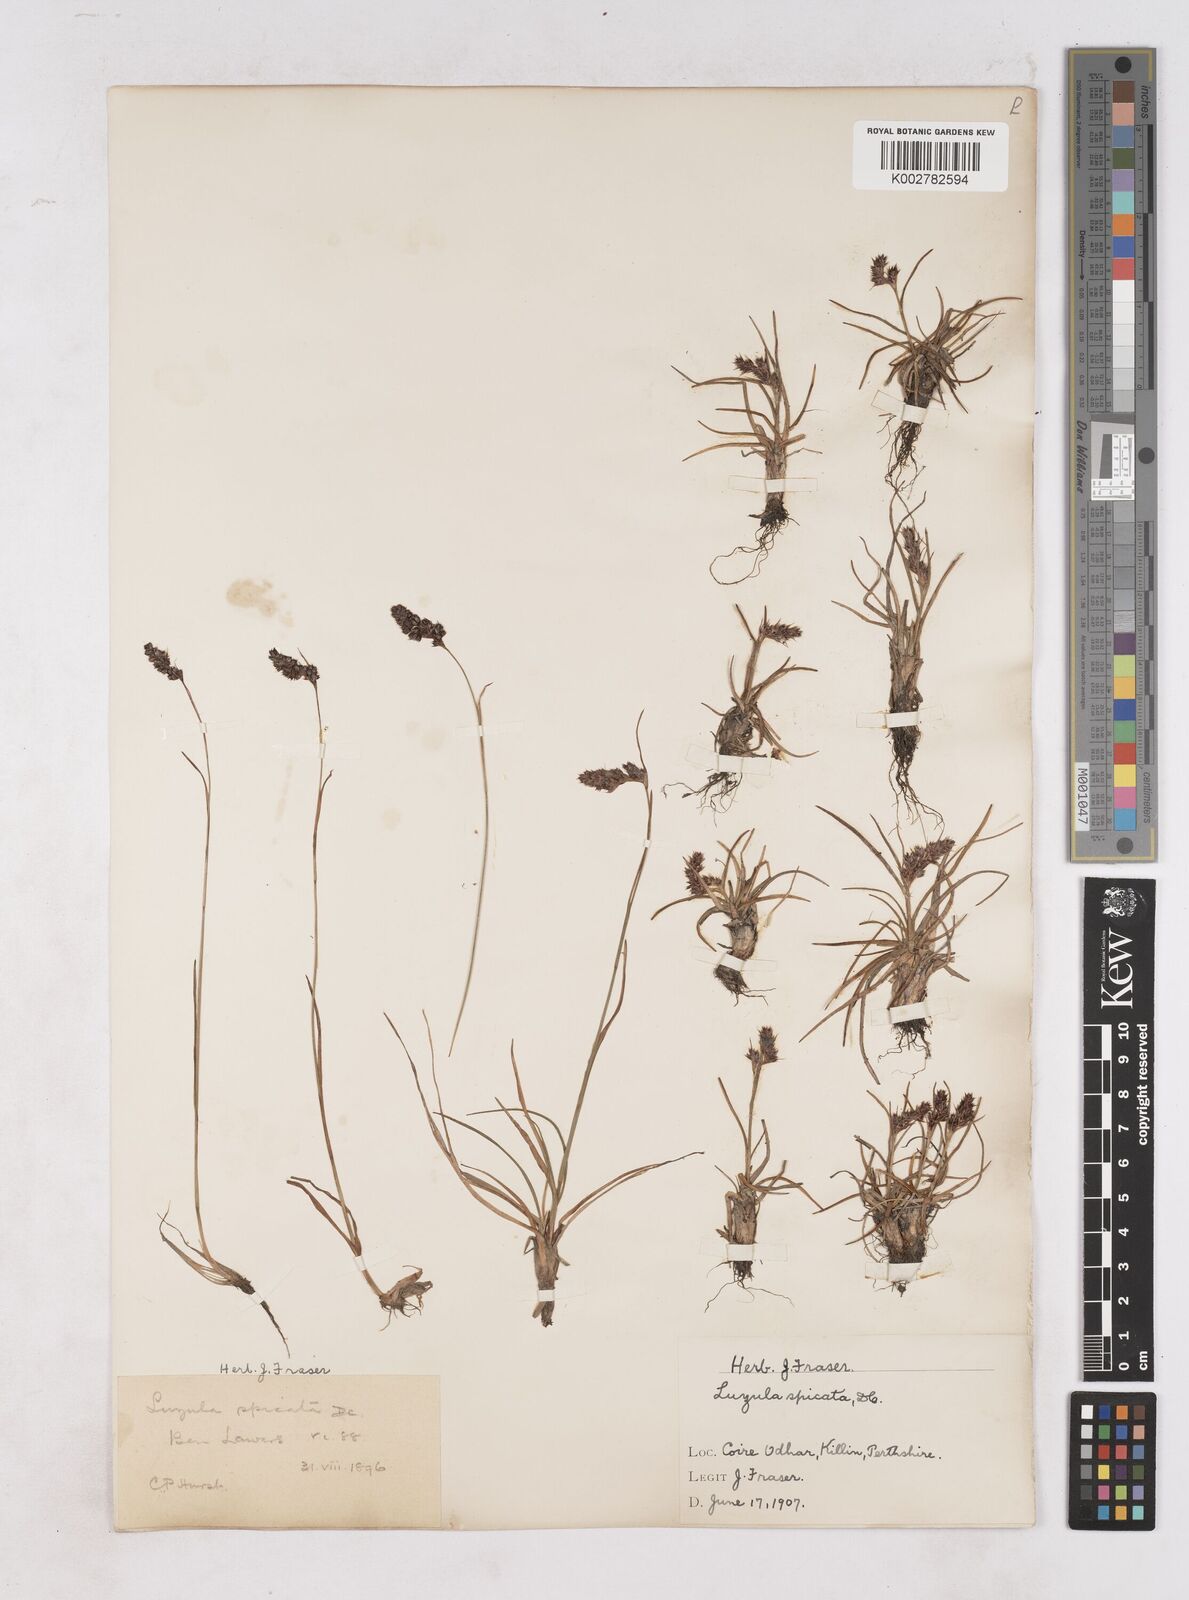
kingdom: Plantae
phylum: Tracheophyta
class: Liliopsida
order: Poales
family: Juncaceae
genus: Luzula
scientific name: Luzula spicata
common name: Spiked wood-rush
